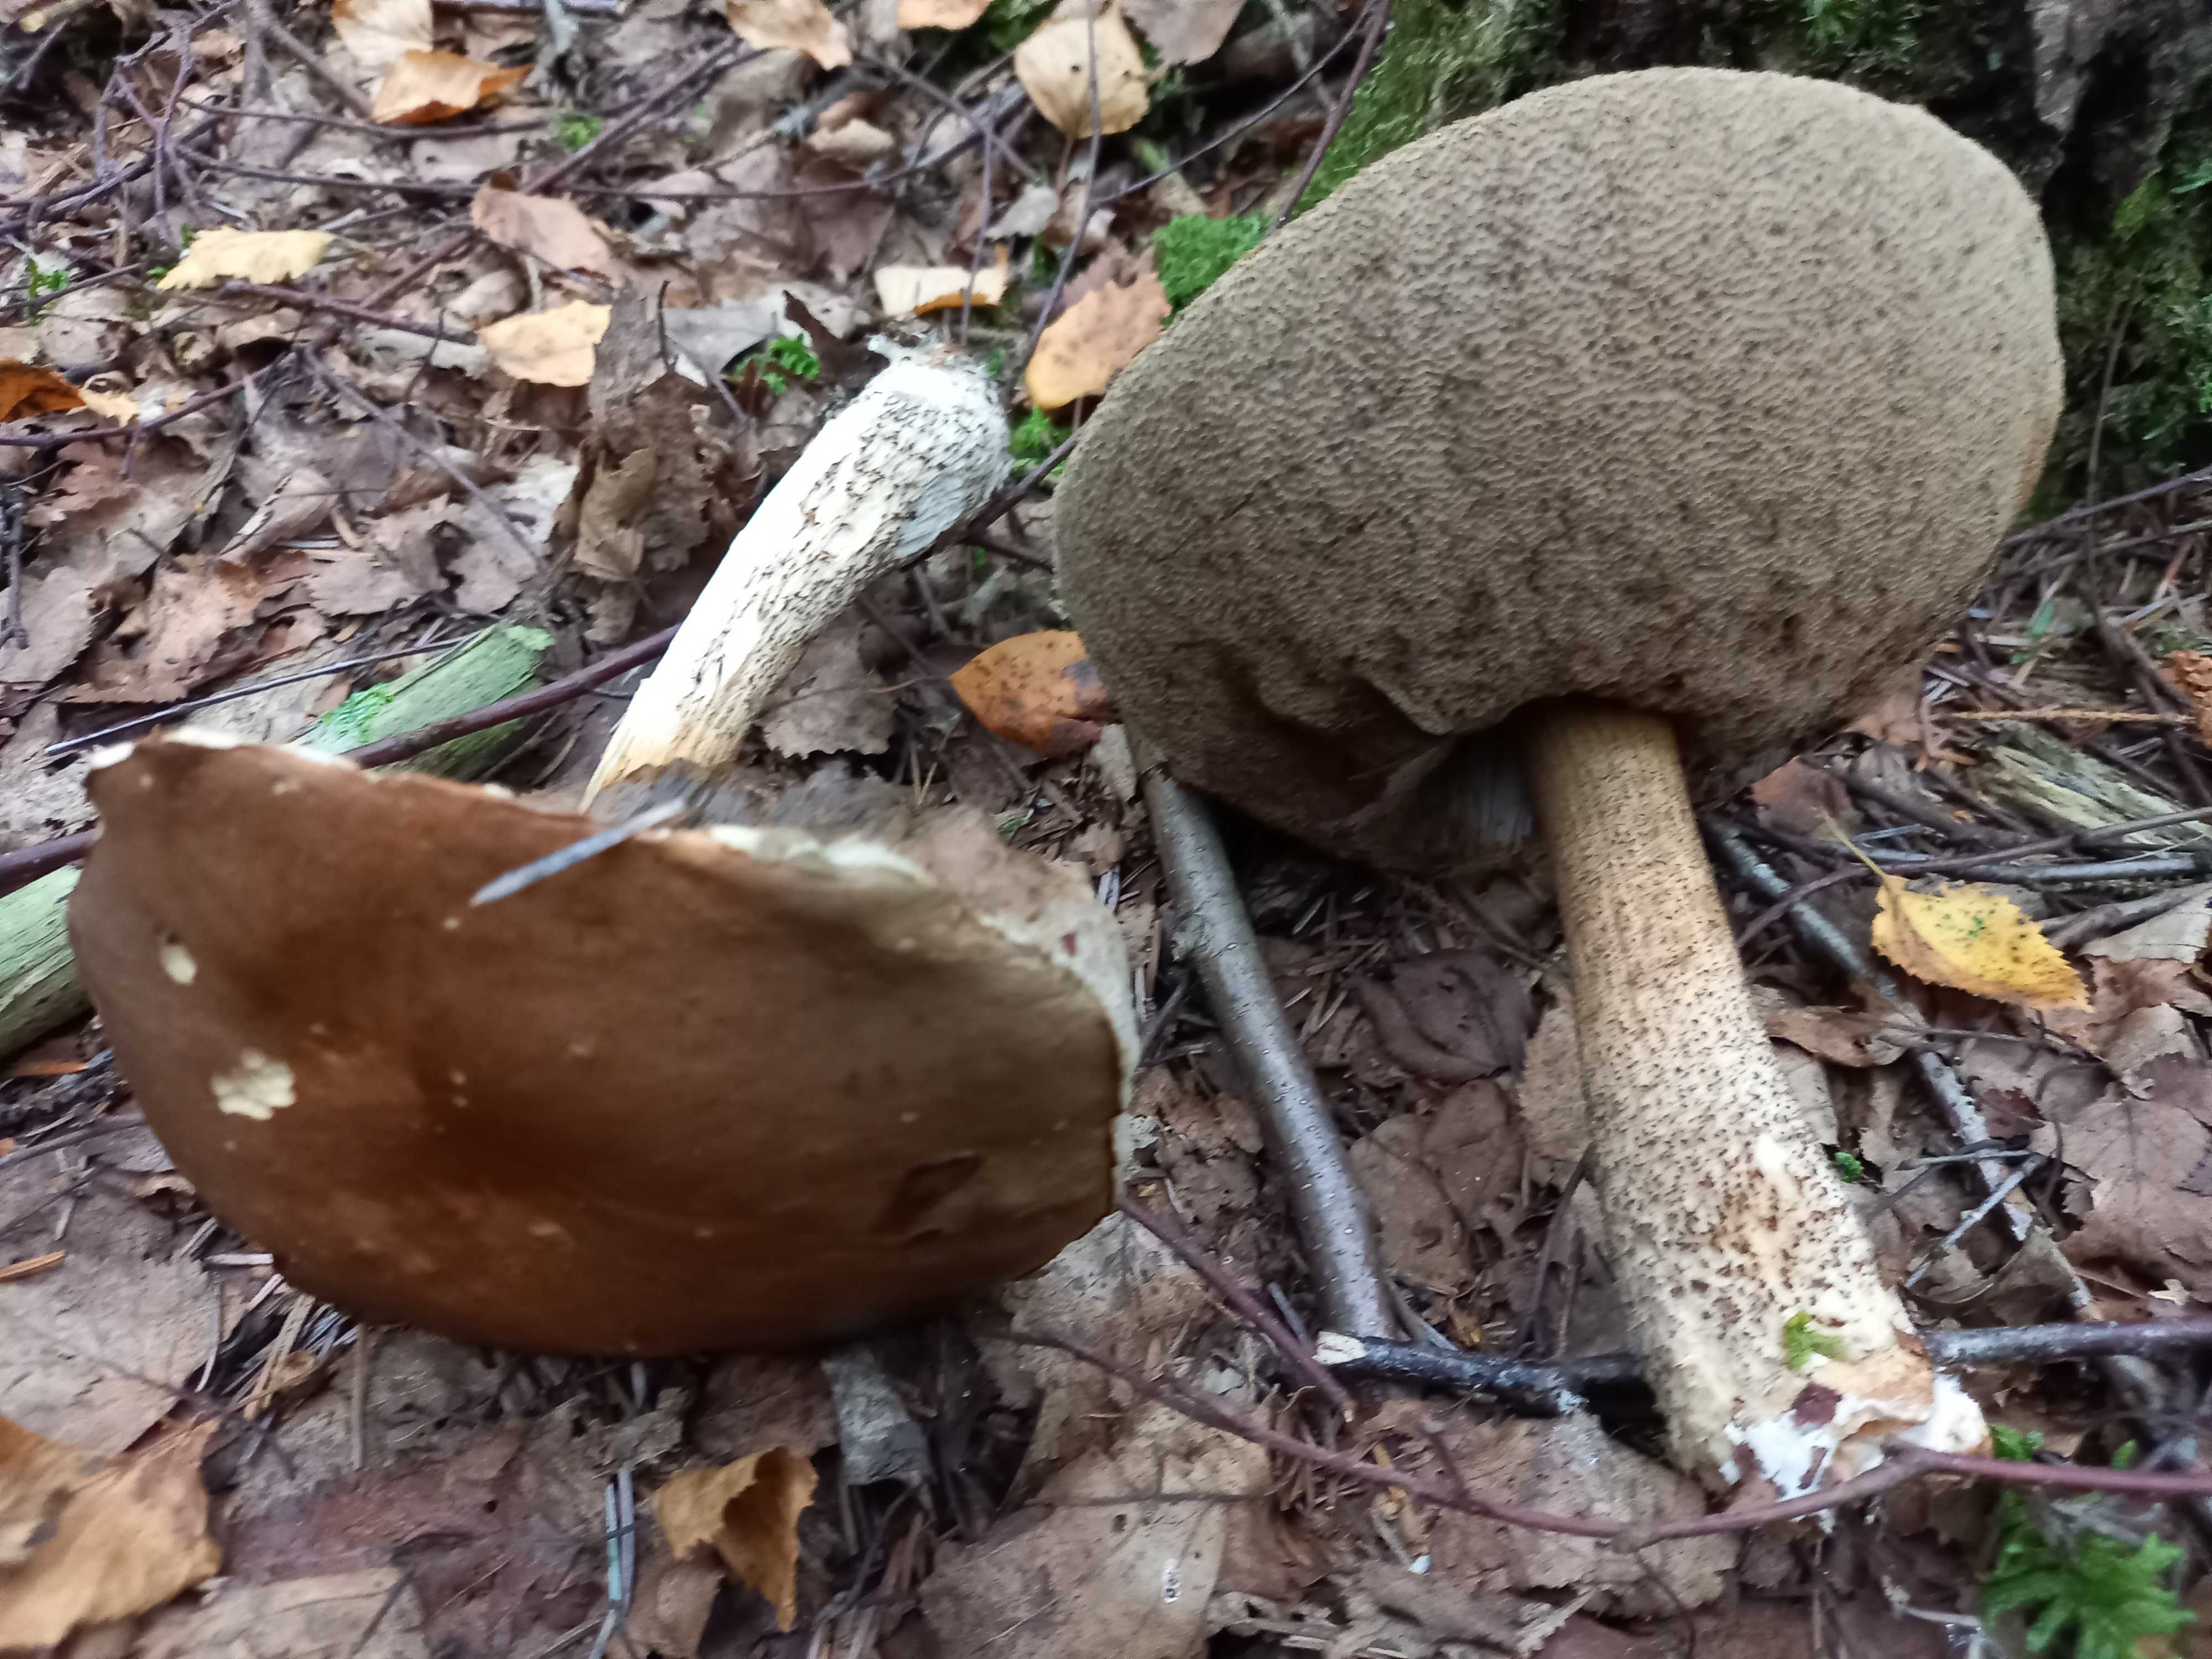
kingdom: Fungi
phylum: Basidiomycota
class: Agaricomycetes
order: Boletales
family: Boletaceae
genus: Leccinum
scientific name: Leccinum scabrum
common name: brun skælrørhat
